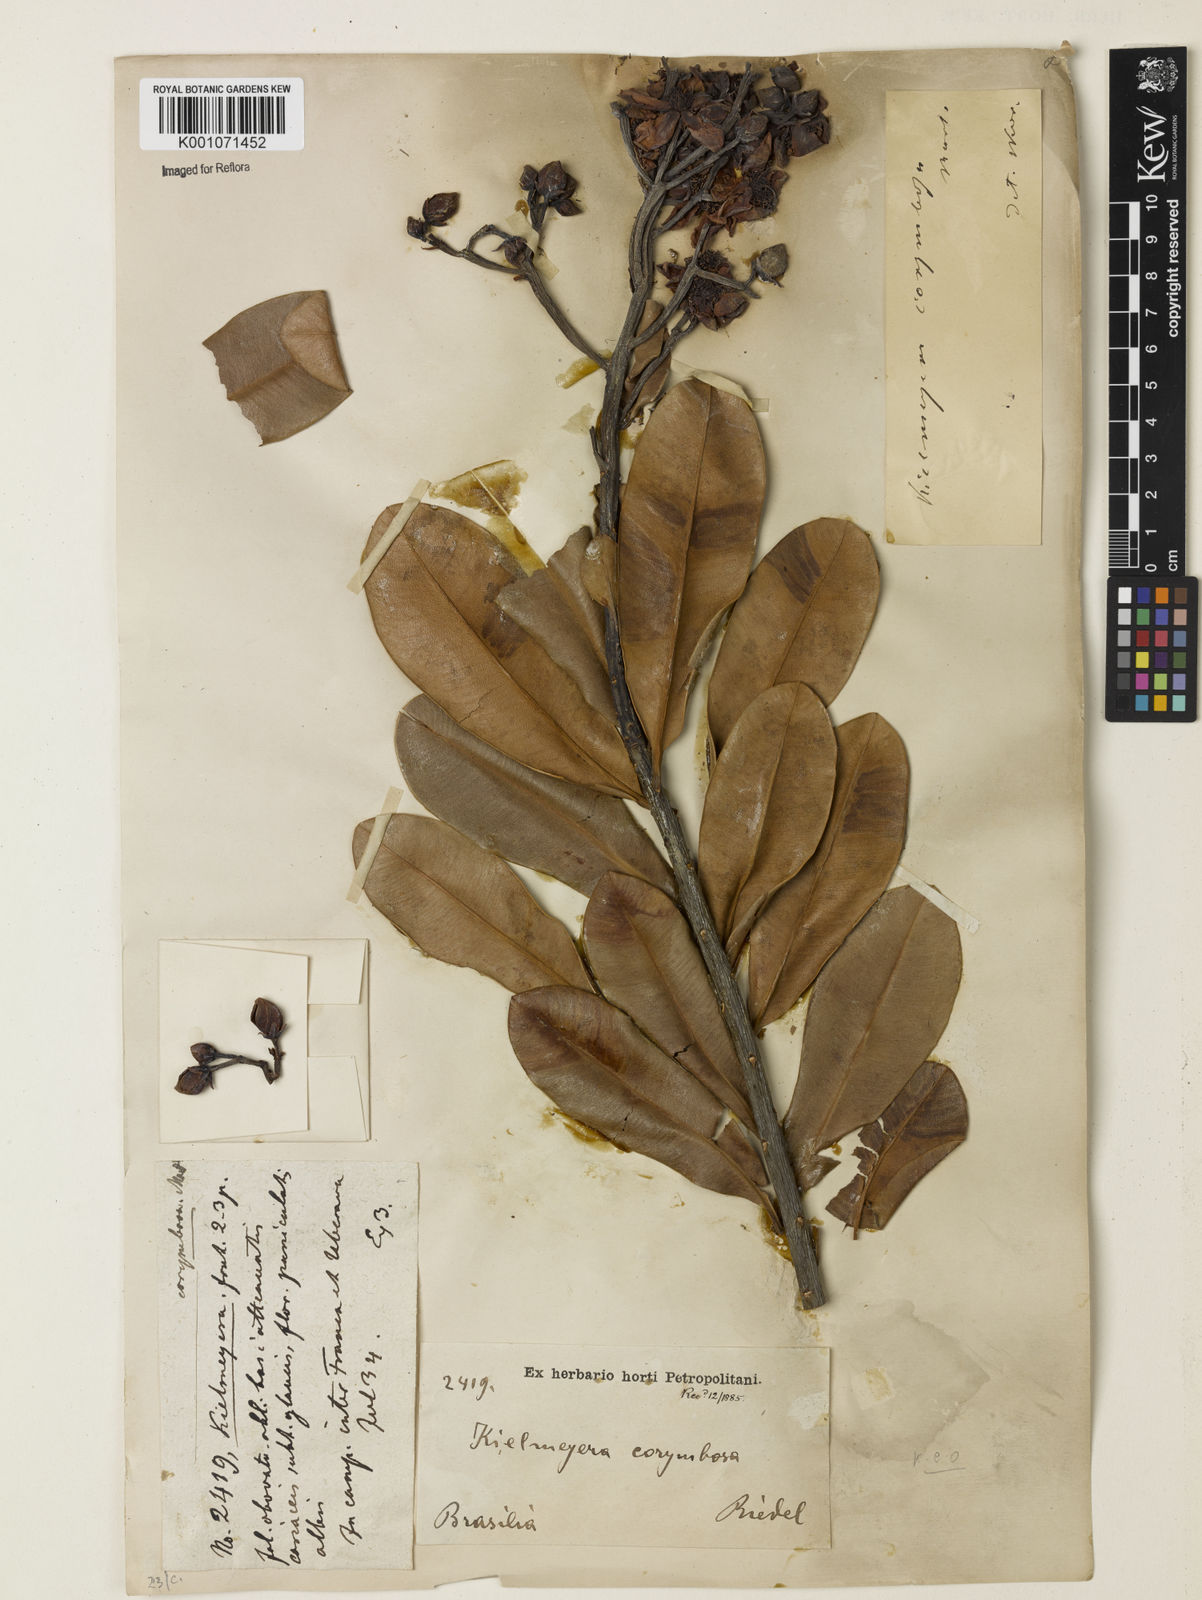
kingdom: Plantae
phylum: Tracheophyta
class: Magnoliopsida
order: Malpighiales
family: Calophyllaceae
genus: Kielmeyera
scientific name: Kielmeyera corymbosa
